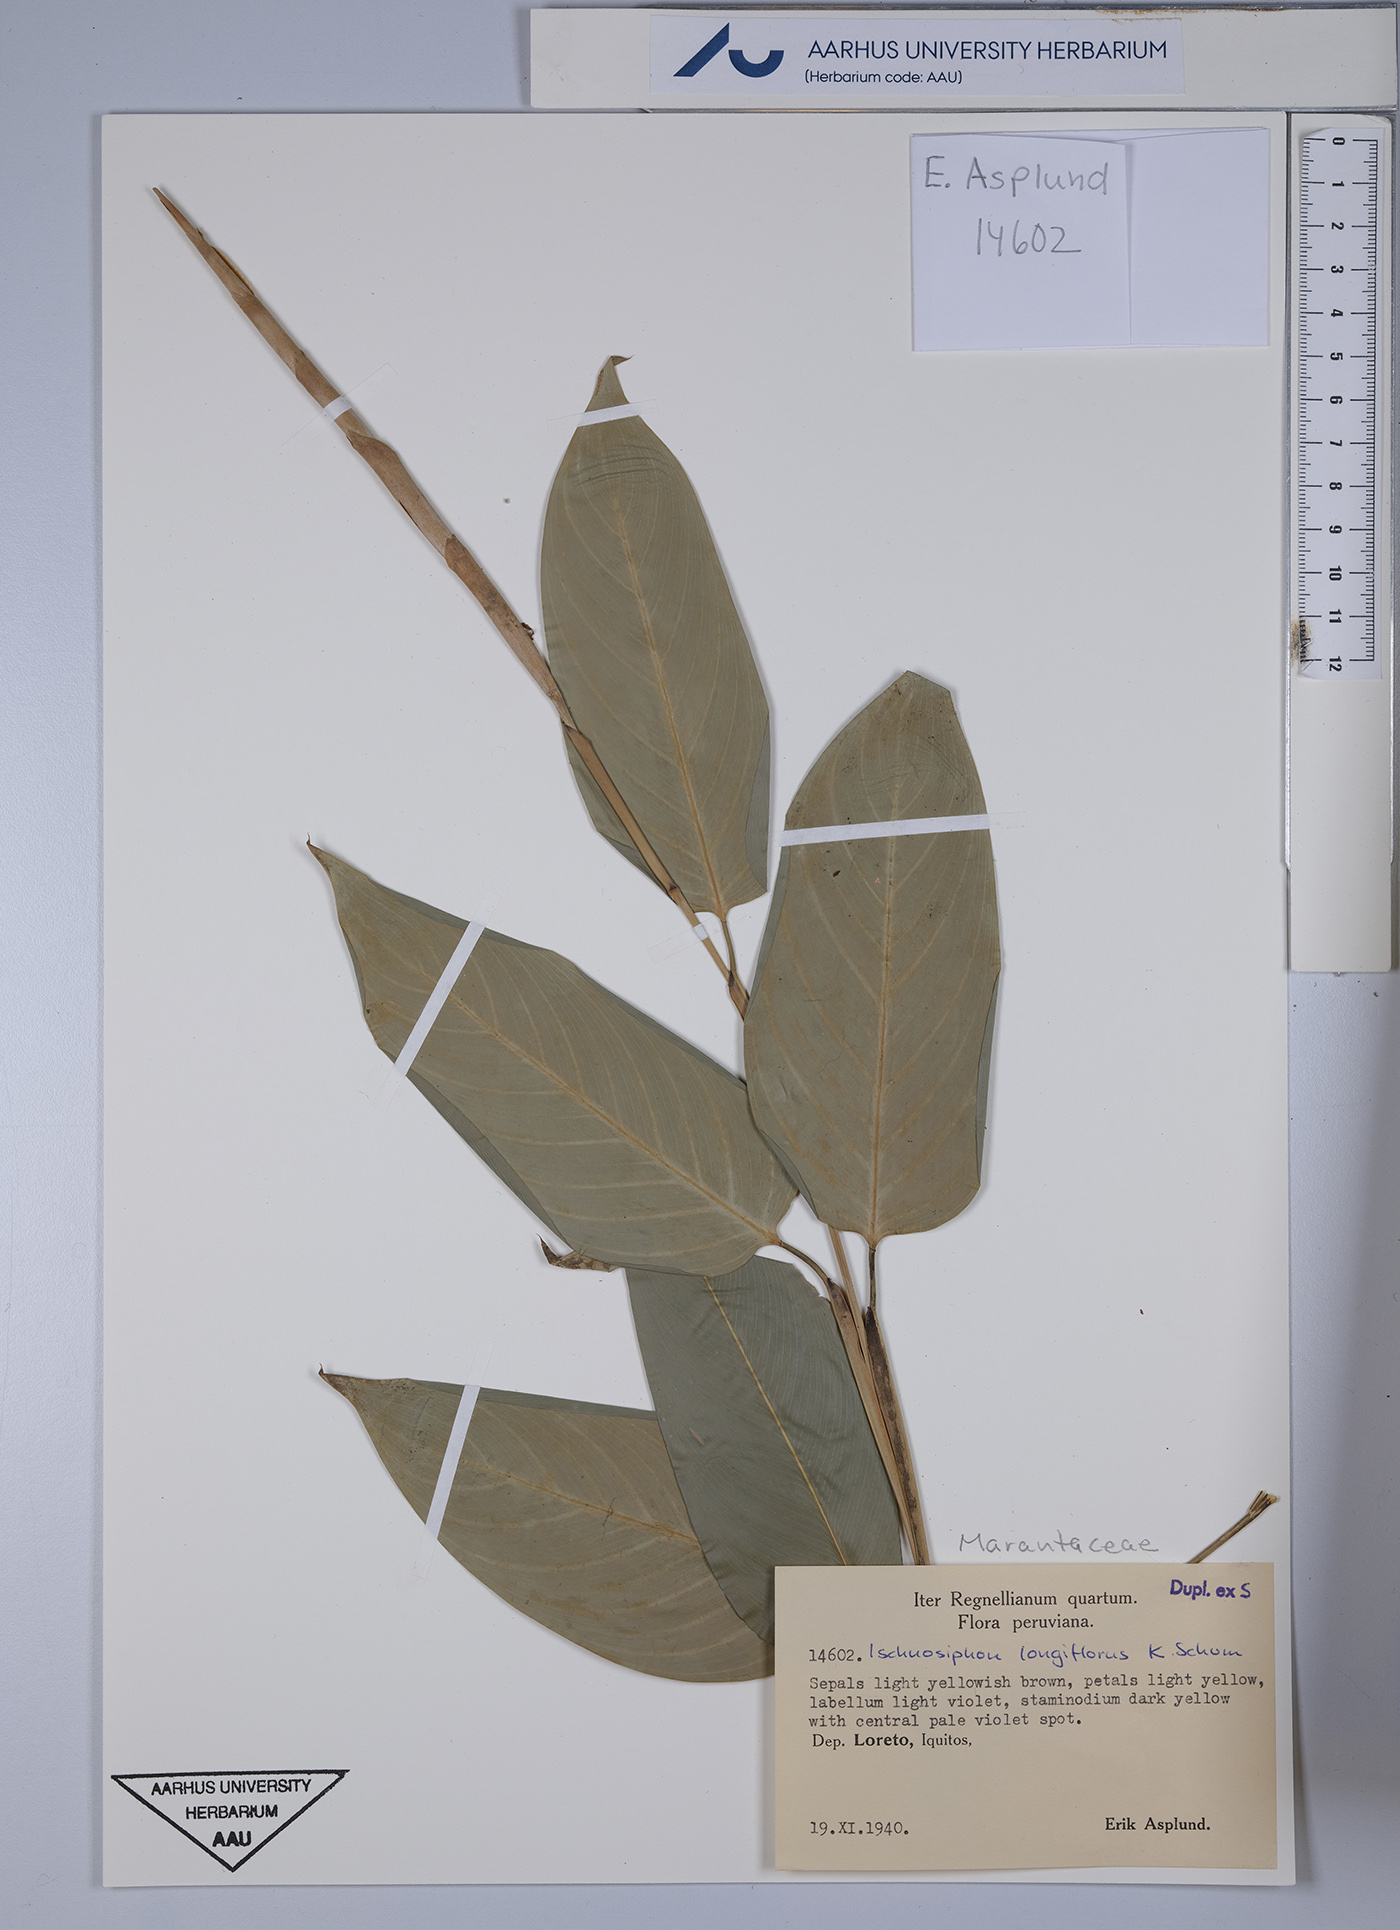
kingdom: Plantae
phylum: Tracheophyta
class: Liliopsida
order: Zingiberales
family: Marantaceae
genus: Ischnosiphon
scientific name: Ischnosiphon longiflorus
